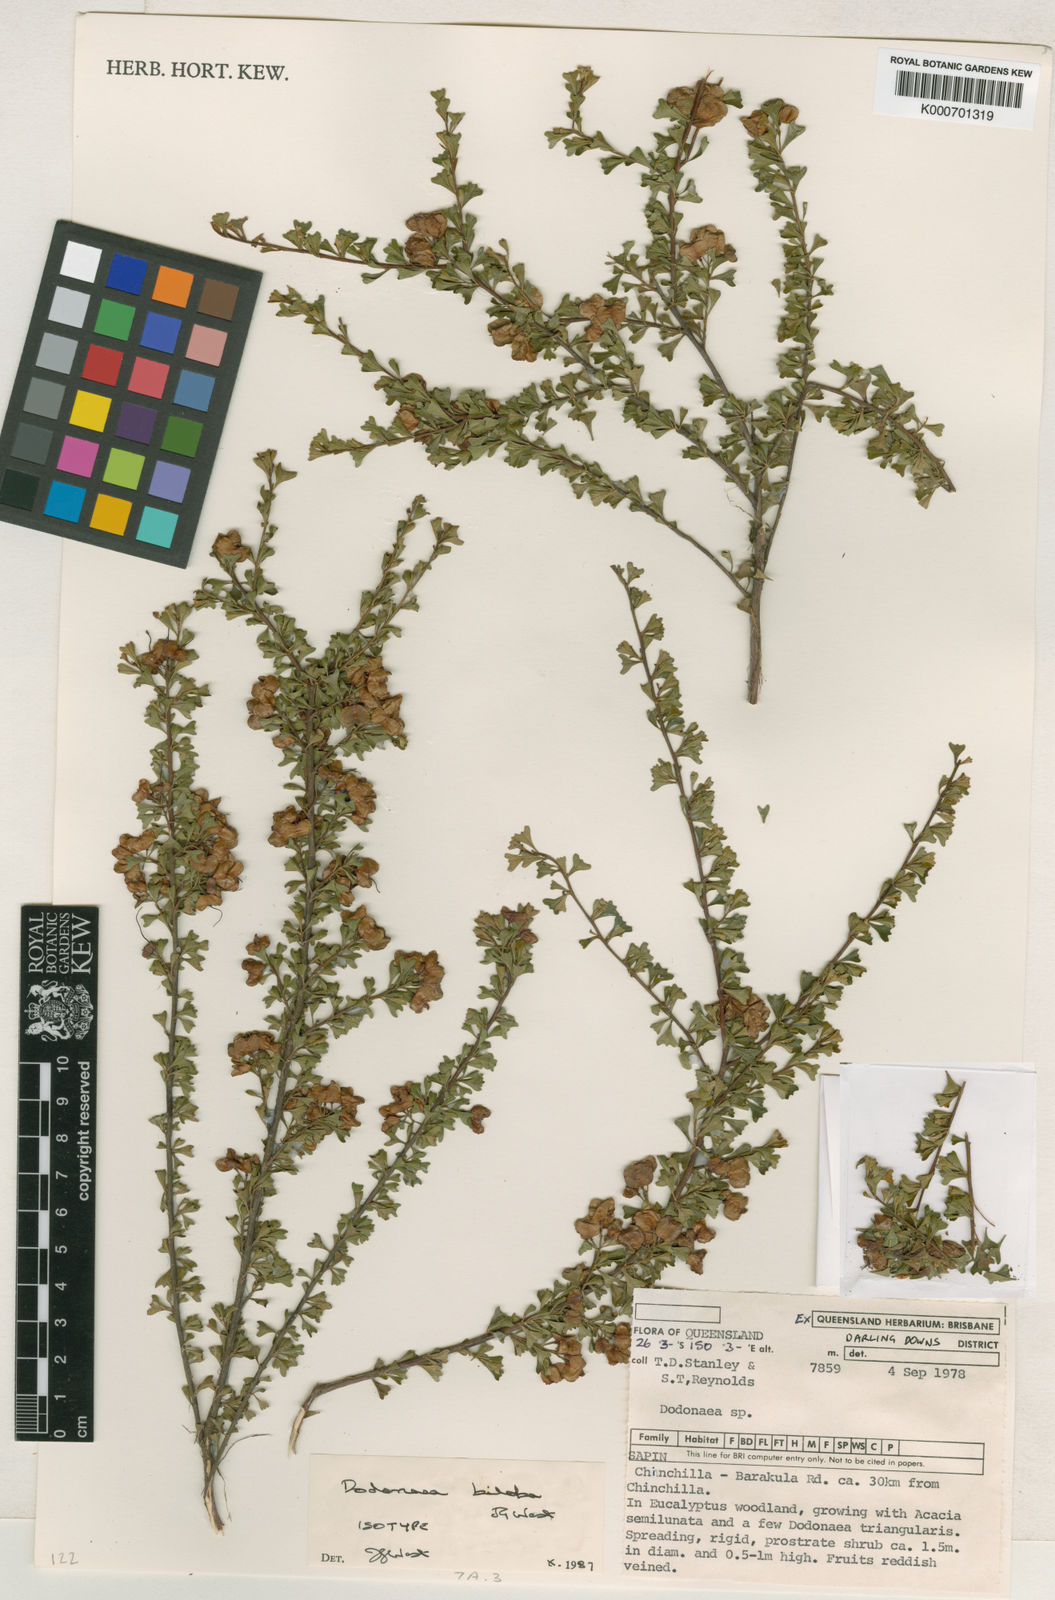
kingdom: Plantae
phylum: Tracheophyta
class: Magnoliopsida
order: Sapindales
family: Sapindaceae
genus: Dodonaea
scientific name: Dodonaea glandulosa
